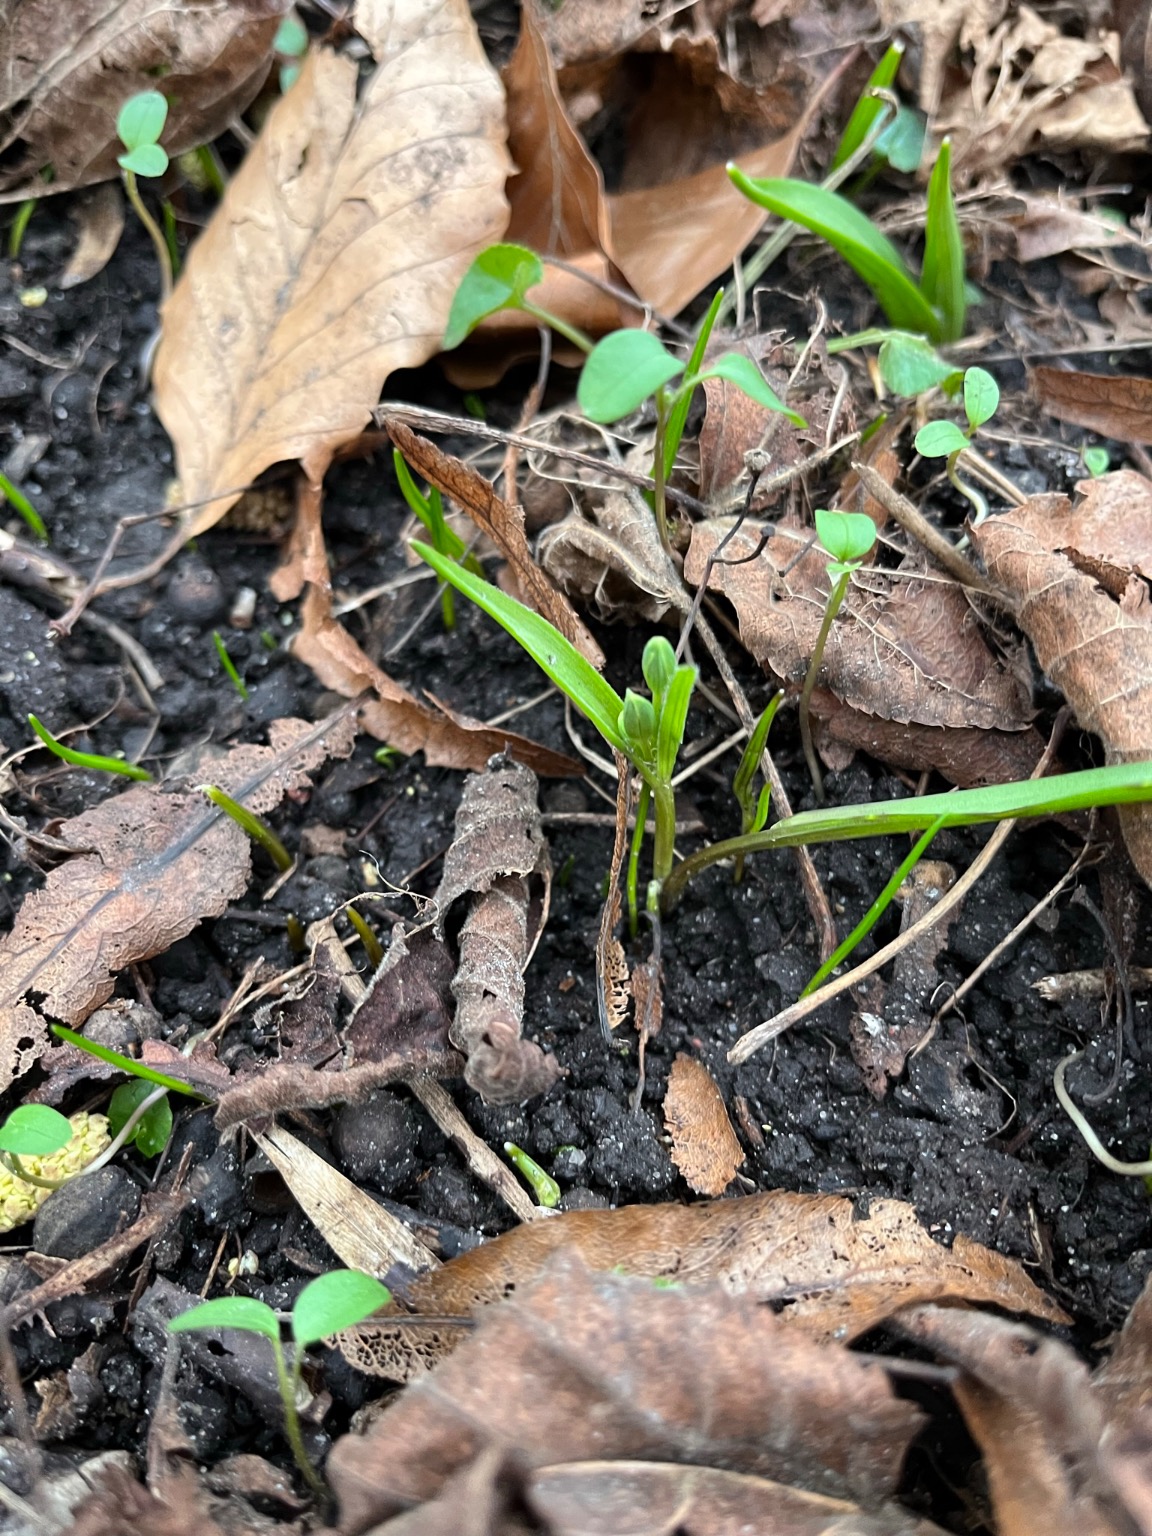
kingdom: Plantae
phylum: Tracheophyta
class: Liliopsida
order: Liliales
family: Liliaceae
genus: Gagea
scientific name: Gagea lutea
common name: Almindelig guldstjerne
